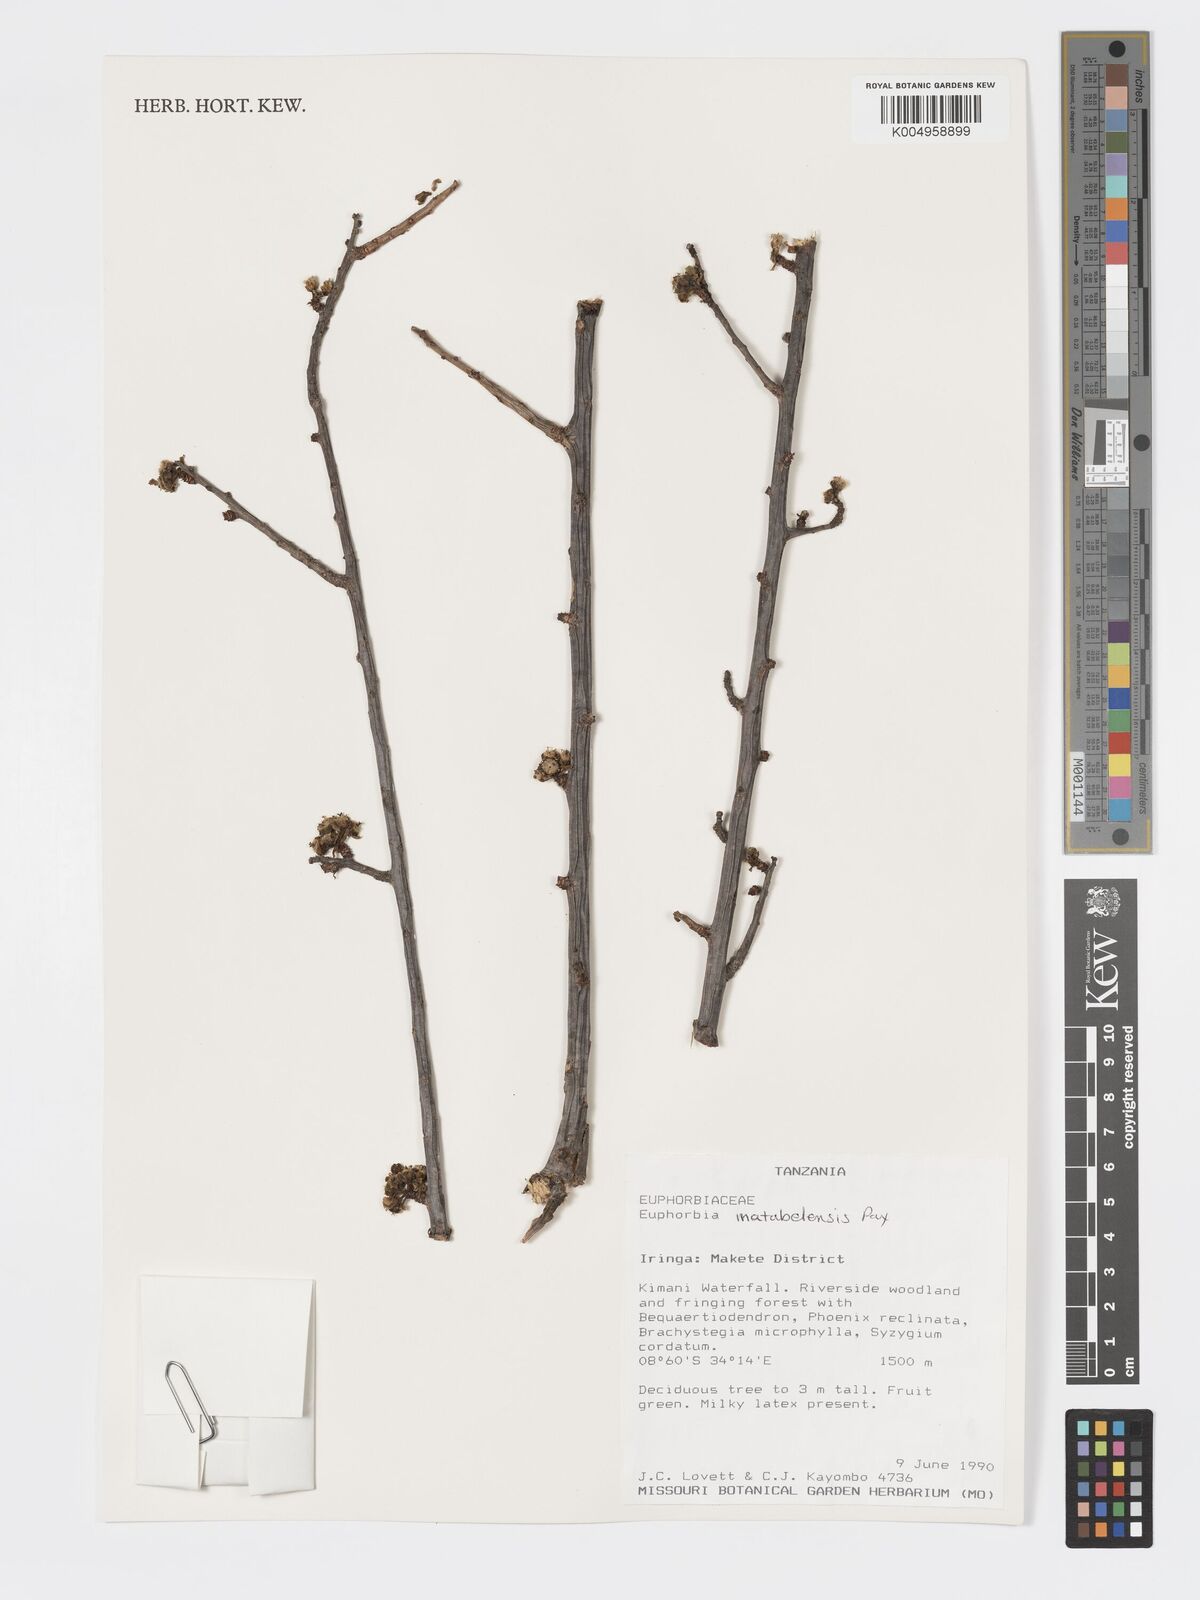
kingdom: Plantae
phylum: Tracheophyta
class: Magnoliopsida
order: Malpighiales
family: Euphorbiaceae
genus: Euphorbia
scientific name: Euphorbia matabelensis
